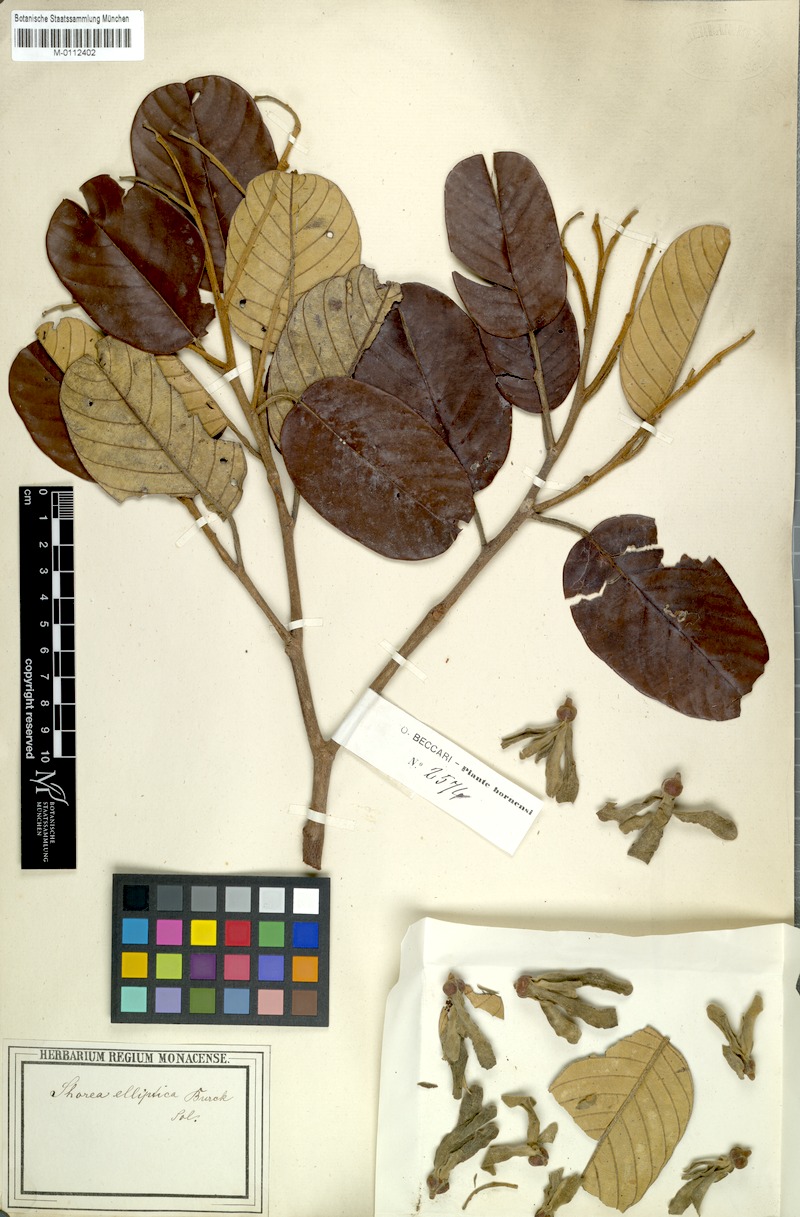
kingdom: Plantae
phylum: Tracheophyta
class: Magnoliopsida
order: Malvales
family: Dipterocarpaceae
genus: Shorea
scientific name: Shorea elliptica
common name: Dark red meranti
